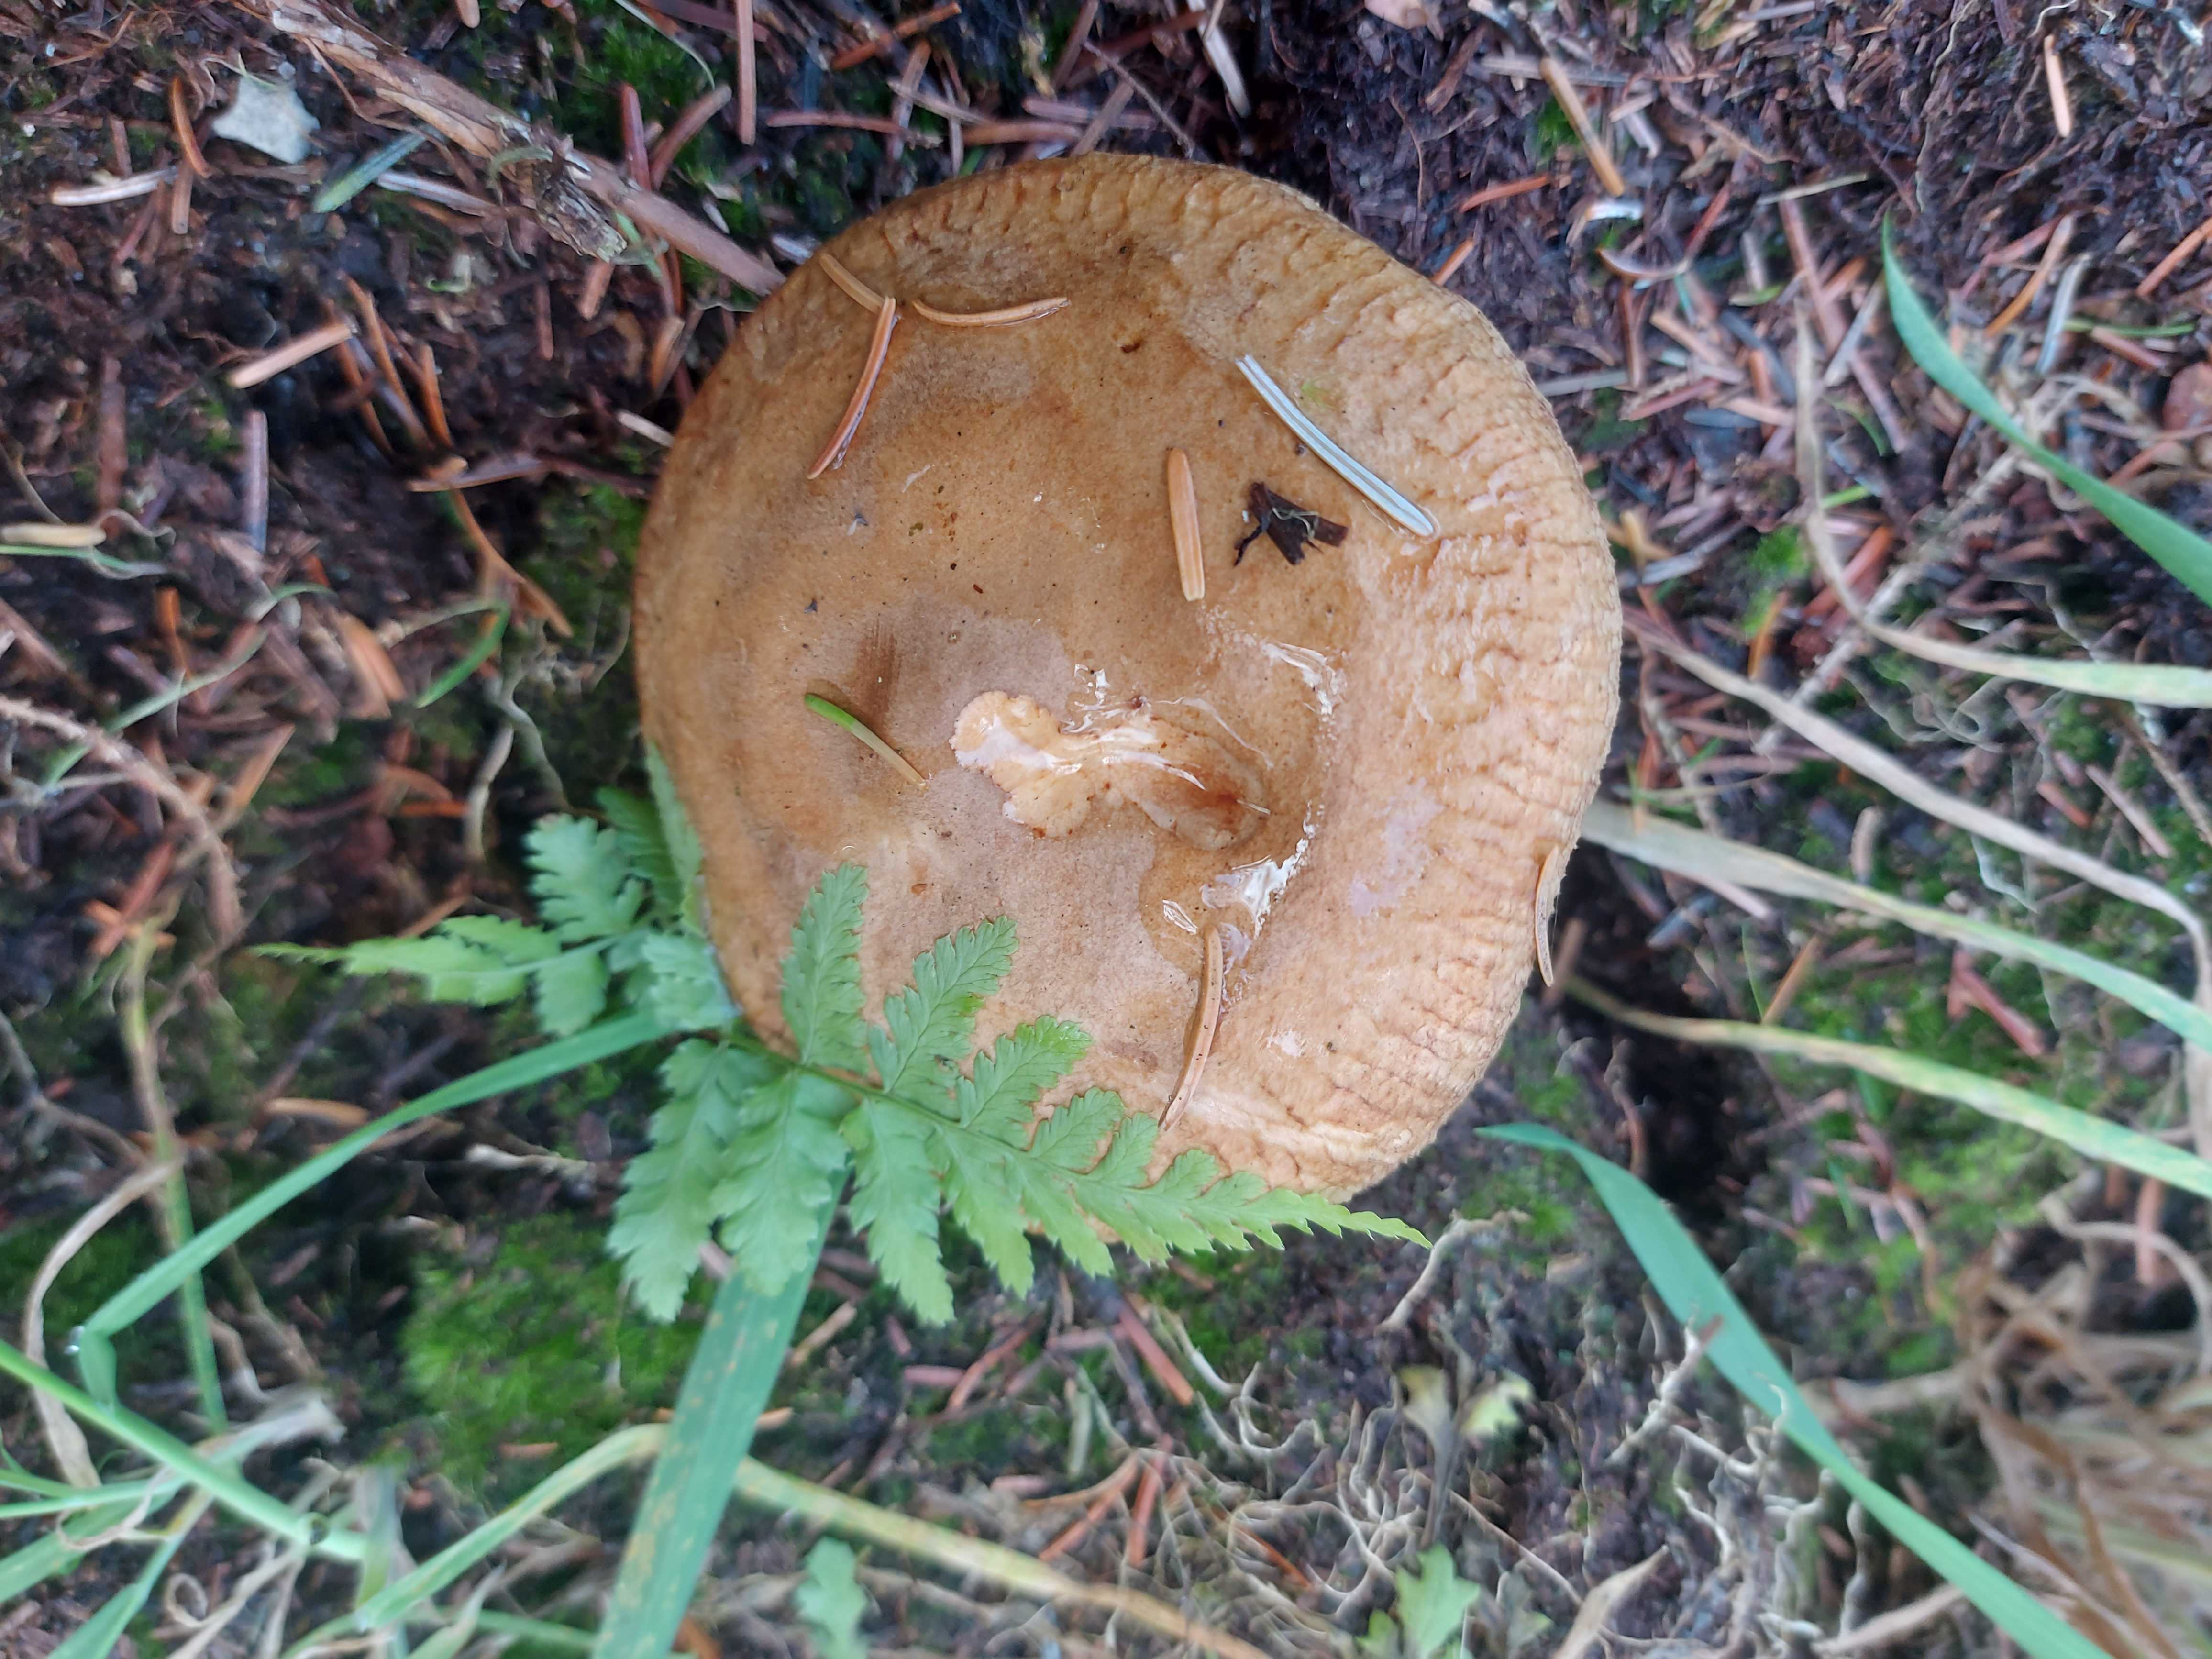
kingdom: Fungi
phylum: Basidiomycota
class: Agaricomycetes
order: Boletales
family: Paxillaceae
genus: Paxillus
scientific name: Paxillus involutus
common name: almindelig netbladhat
